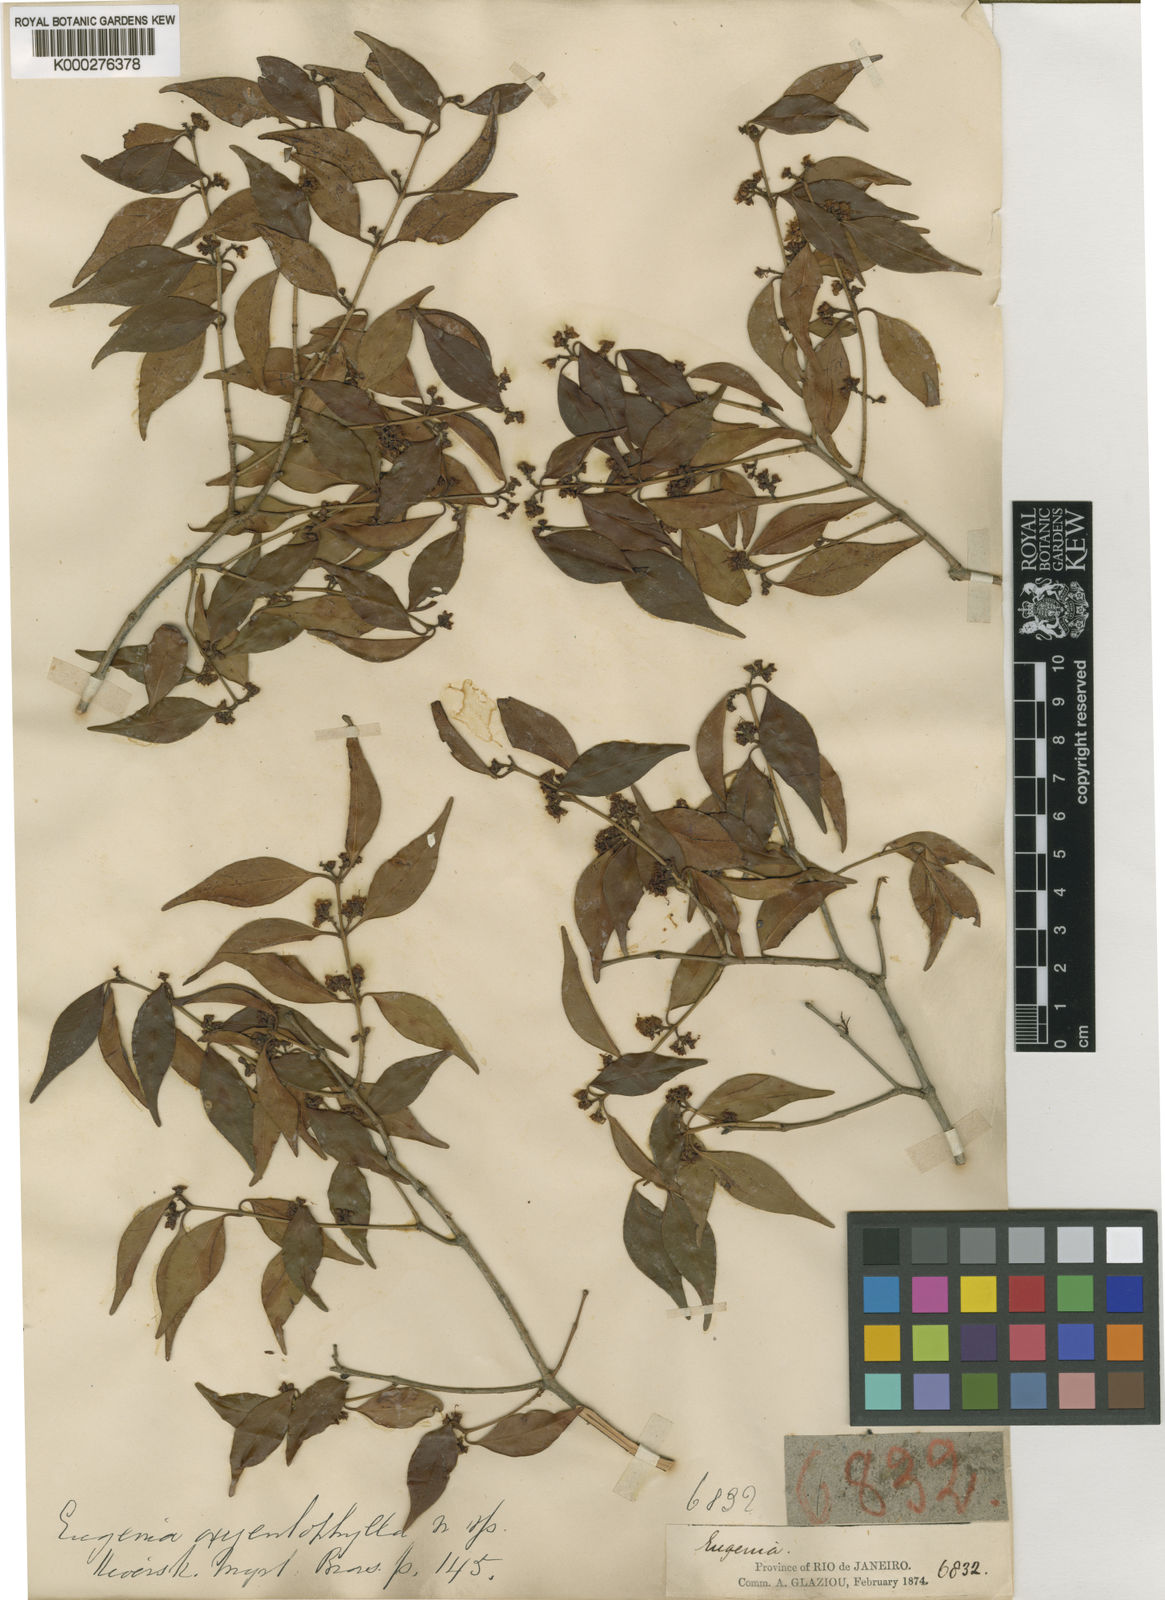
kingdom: Plantae
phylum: Tracheophyta
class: Magnoliopsida
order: Myrtales
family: Myrtaceae
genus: Eugenia
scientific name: Eugenia repanda
